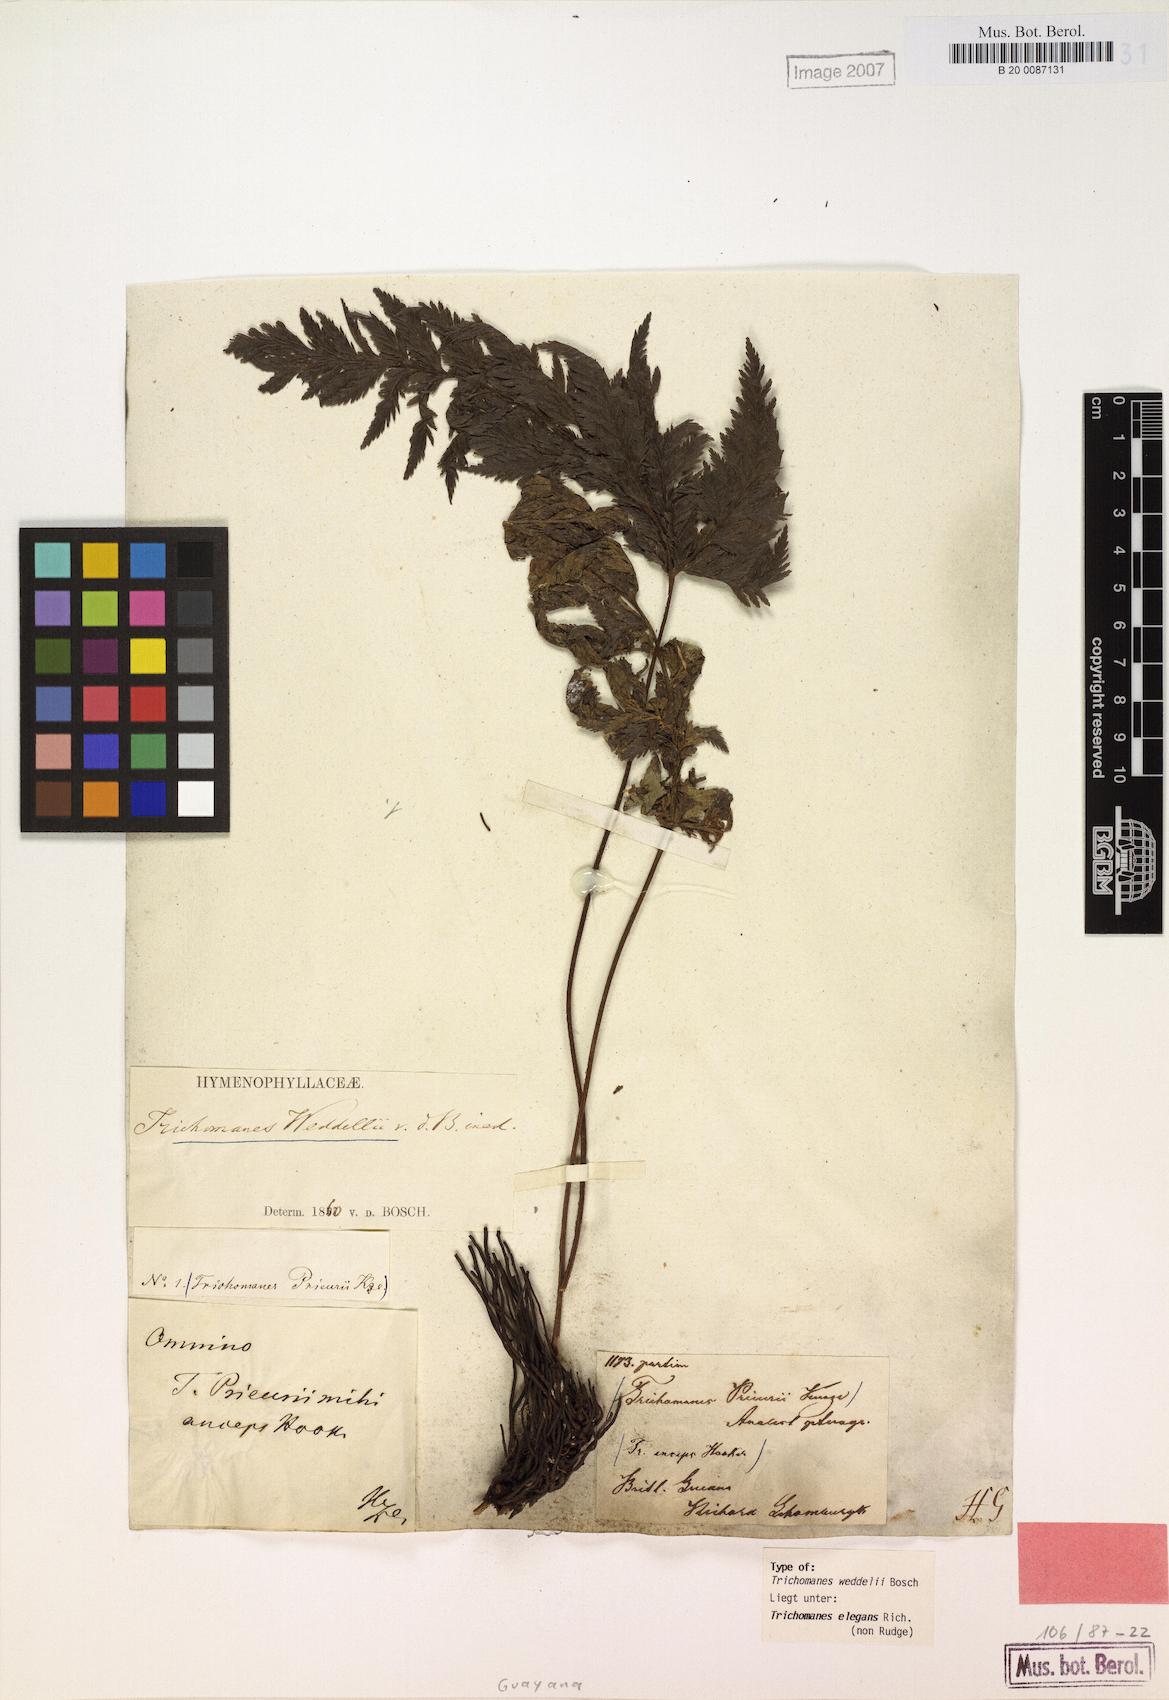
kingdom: Plantae
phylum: Tracheophyta
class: Polypodiopsida
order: Hymenophyllales
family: Hymenophyllaceae
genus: Trichomanes
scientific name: Trichomanes elegans
